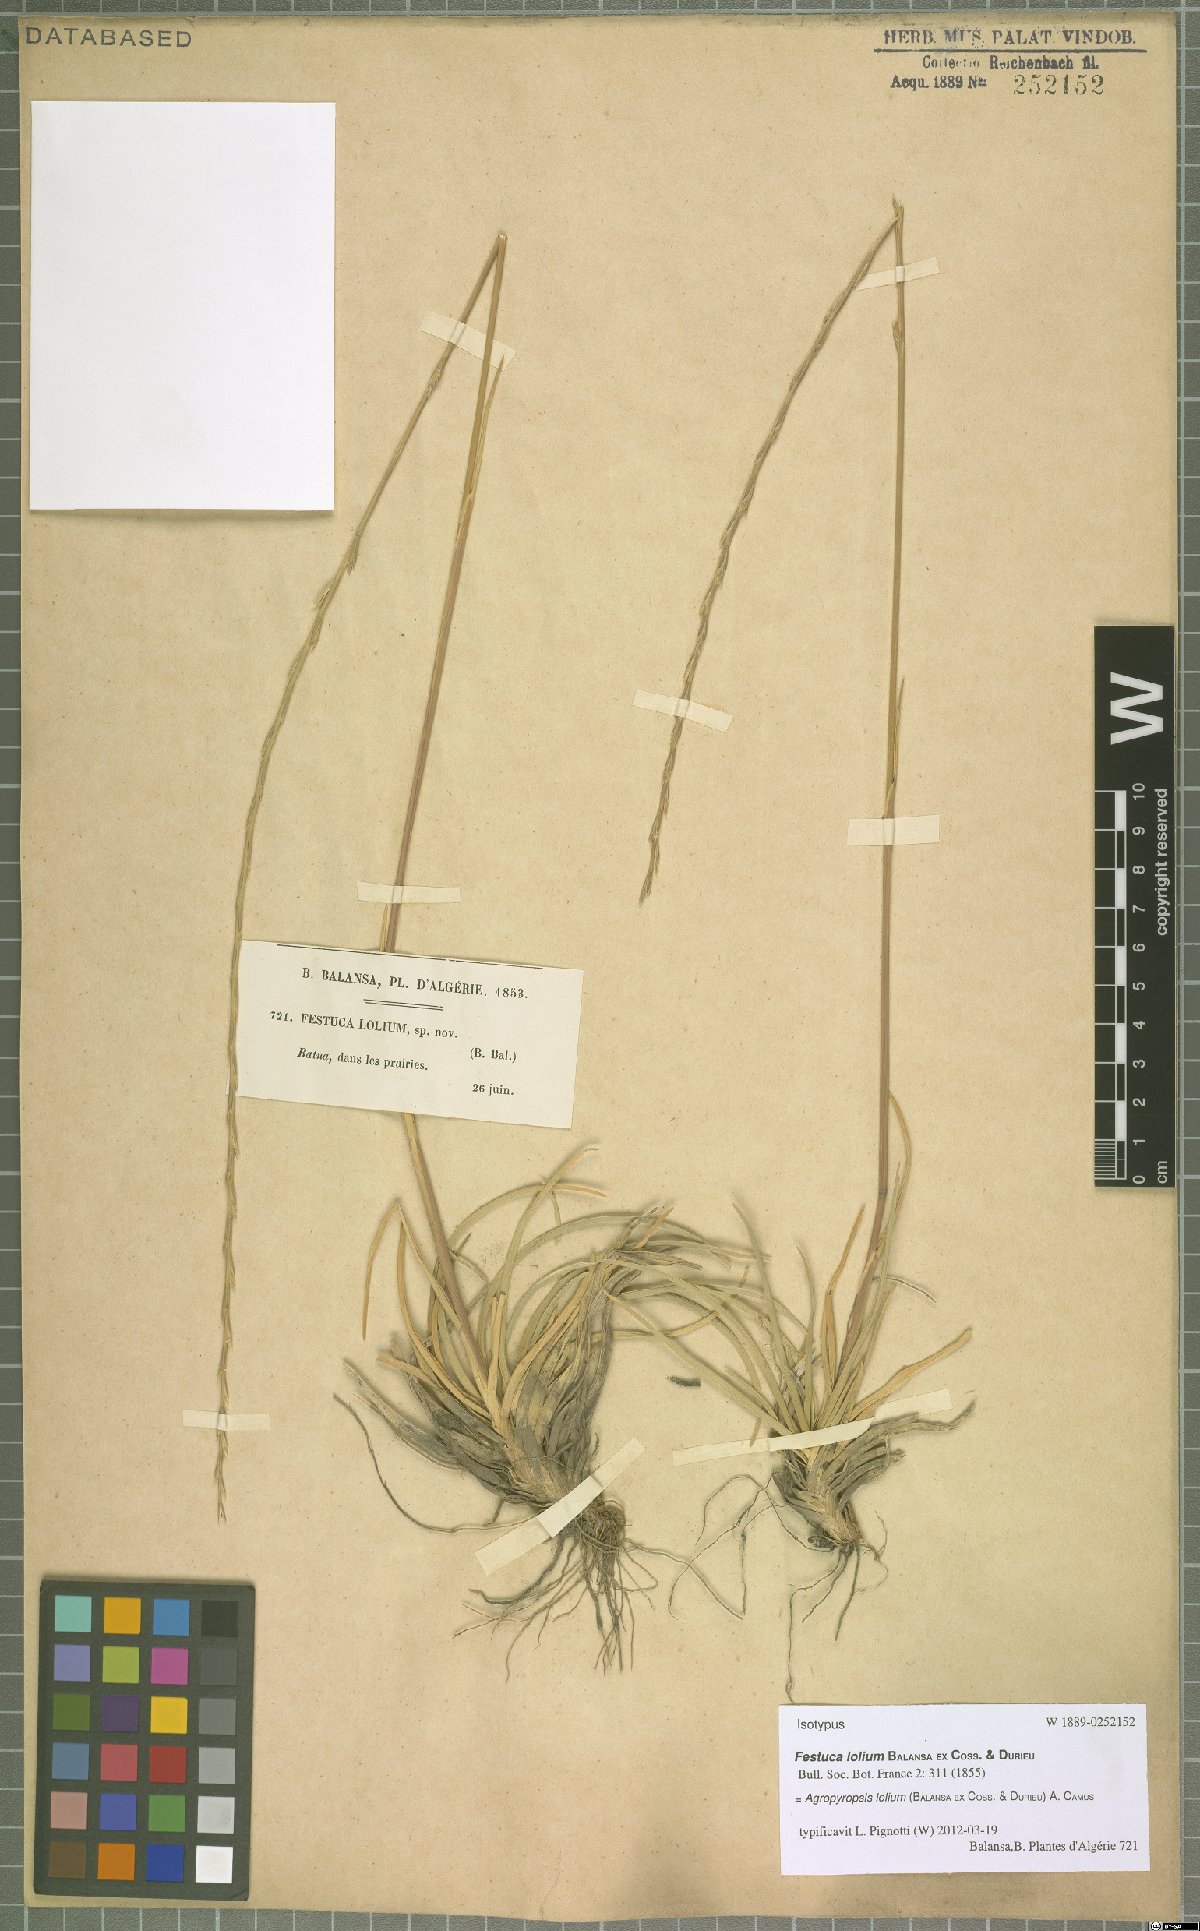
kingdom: Plantae
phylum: Tracheophyta
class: Liliopsida
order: Poales
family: Poaceae
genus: Agropyropsis
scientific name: Agropyropsis lolium
